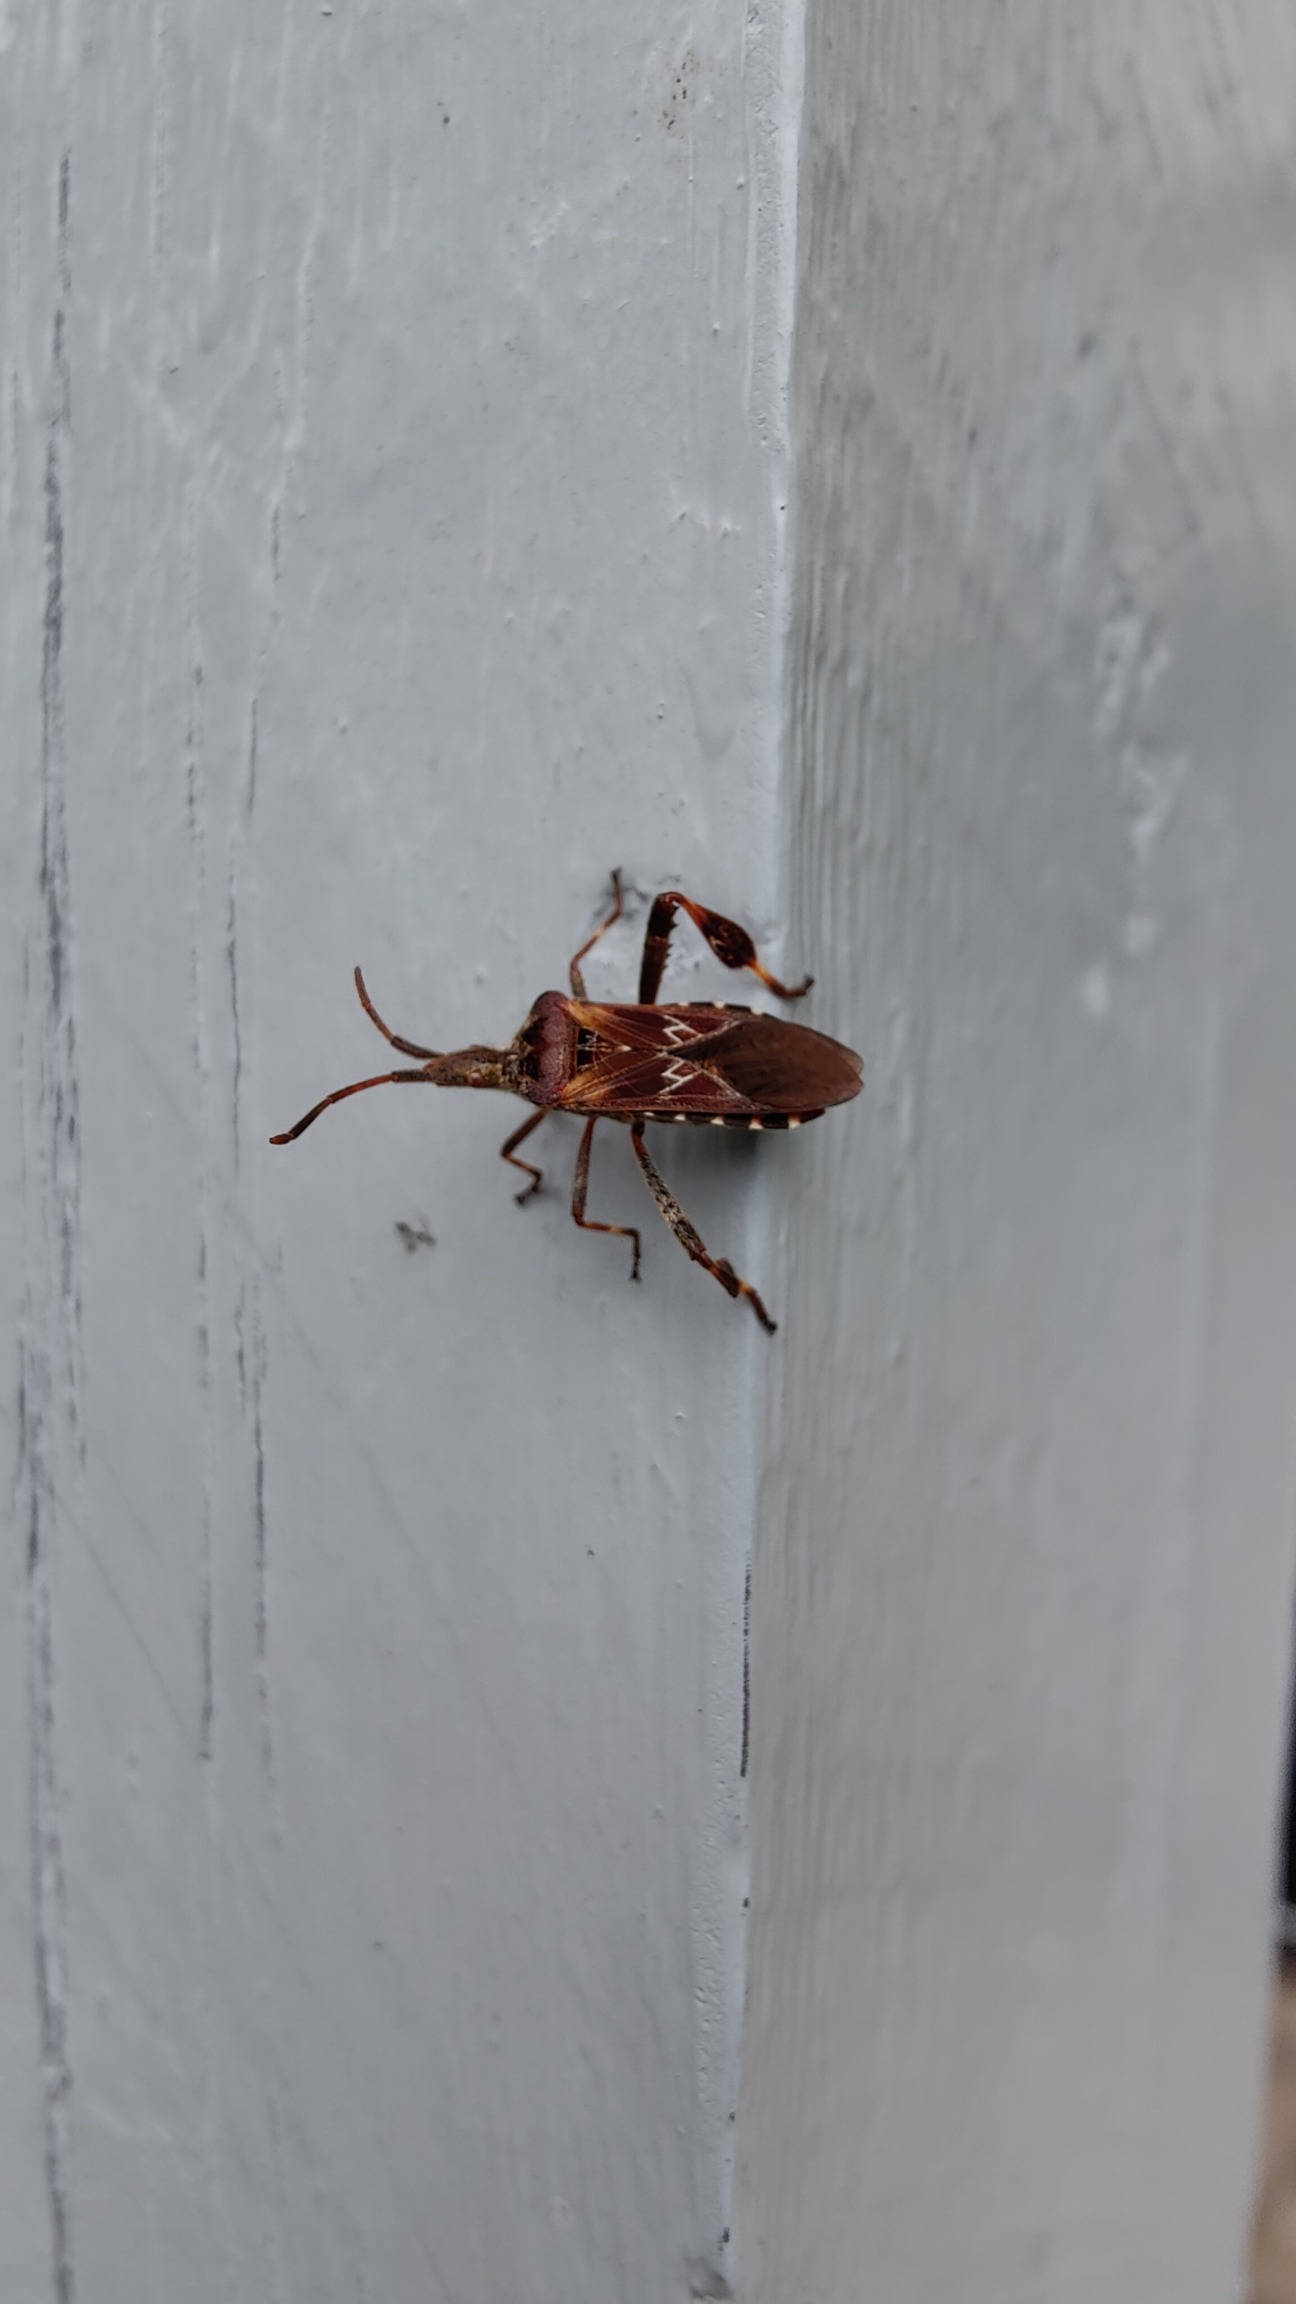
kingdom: Animalia
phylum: Arthropoda
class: Insecta
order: Hemiptera
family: Coreidae
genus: Leptoglossus
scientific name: Leptoglossus occidentalis
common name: Amerikansk fyrretæge
